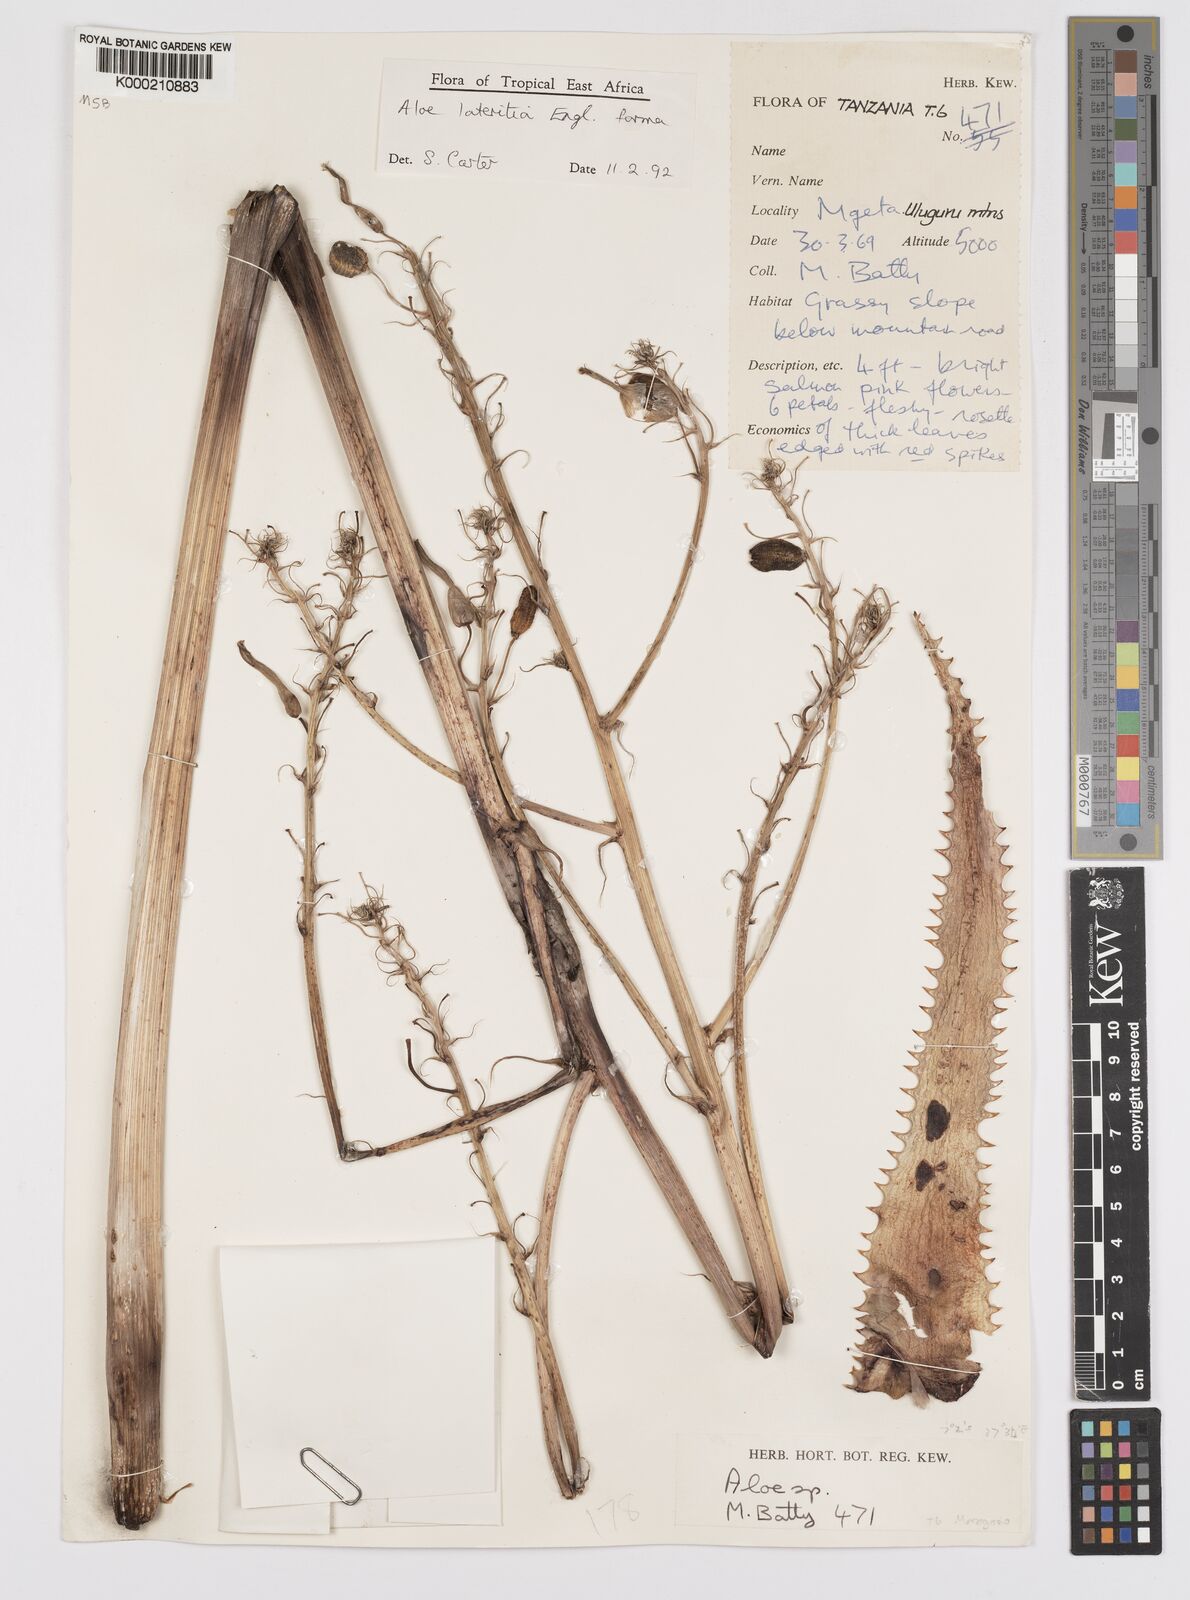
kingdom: Plantae
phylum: Tracheophyta
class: Liliopsida
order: Asparagales
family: Asphodelaceae
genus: Aloe
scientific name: Aloe lateritia
